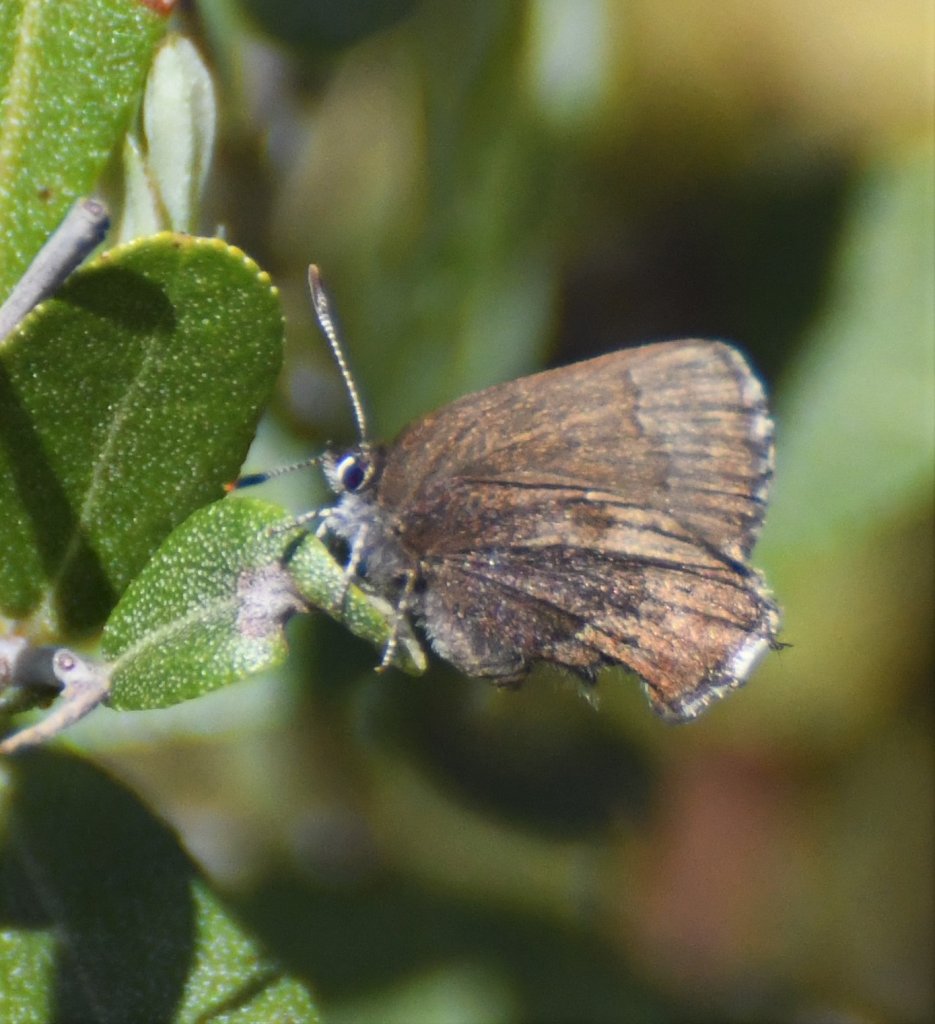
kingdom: Animalia
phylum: Arthropoda
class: Insecta
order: Lepidoptera
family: Lycaenidae
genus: Incisalia
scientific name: Incisalia irioides
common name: Brown Elfin
